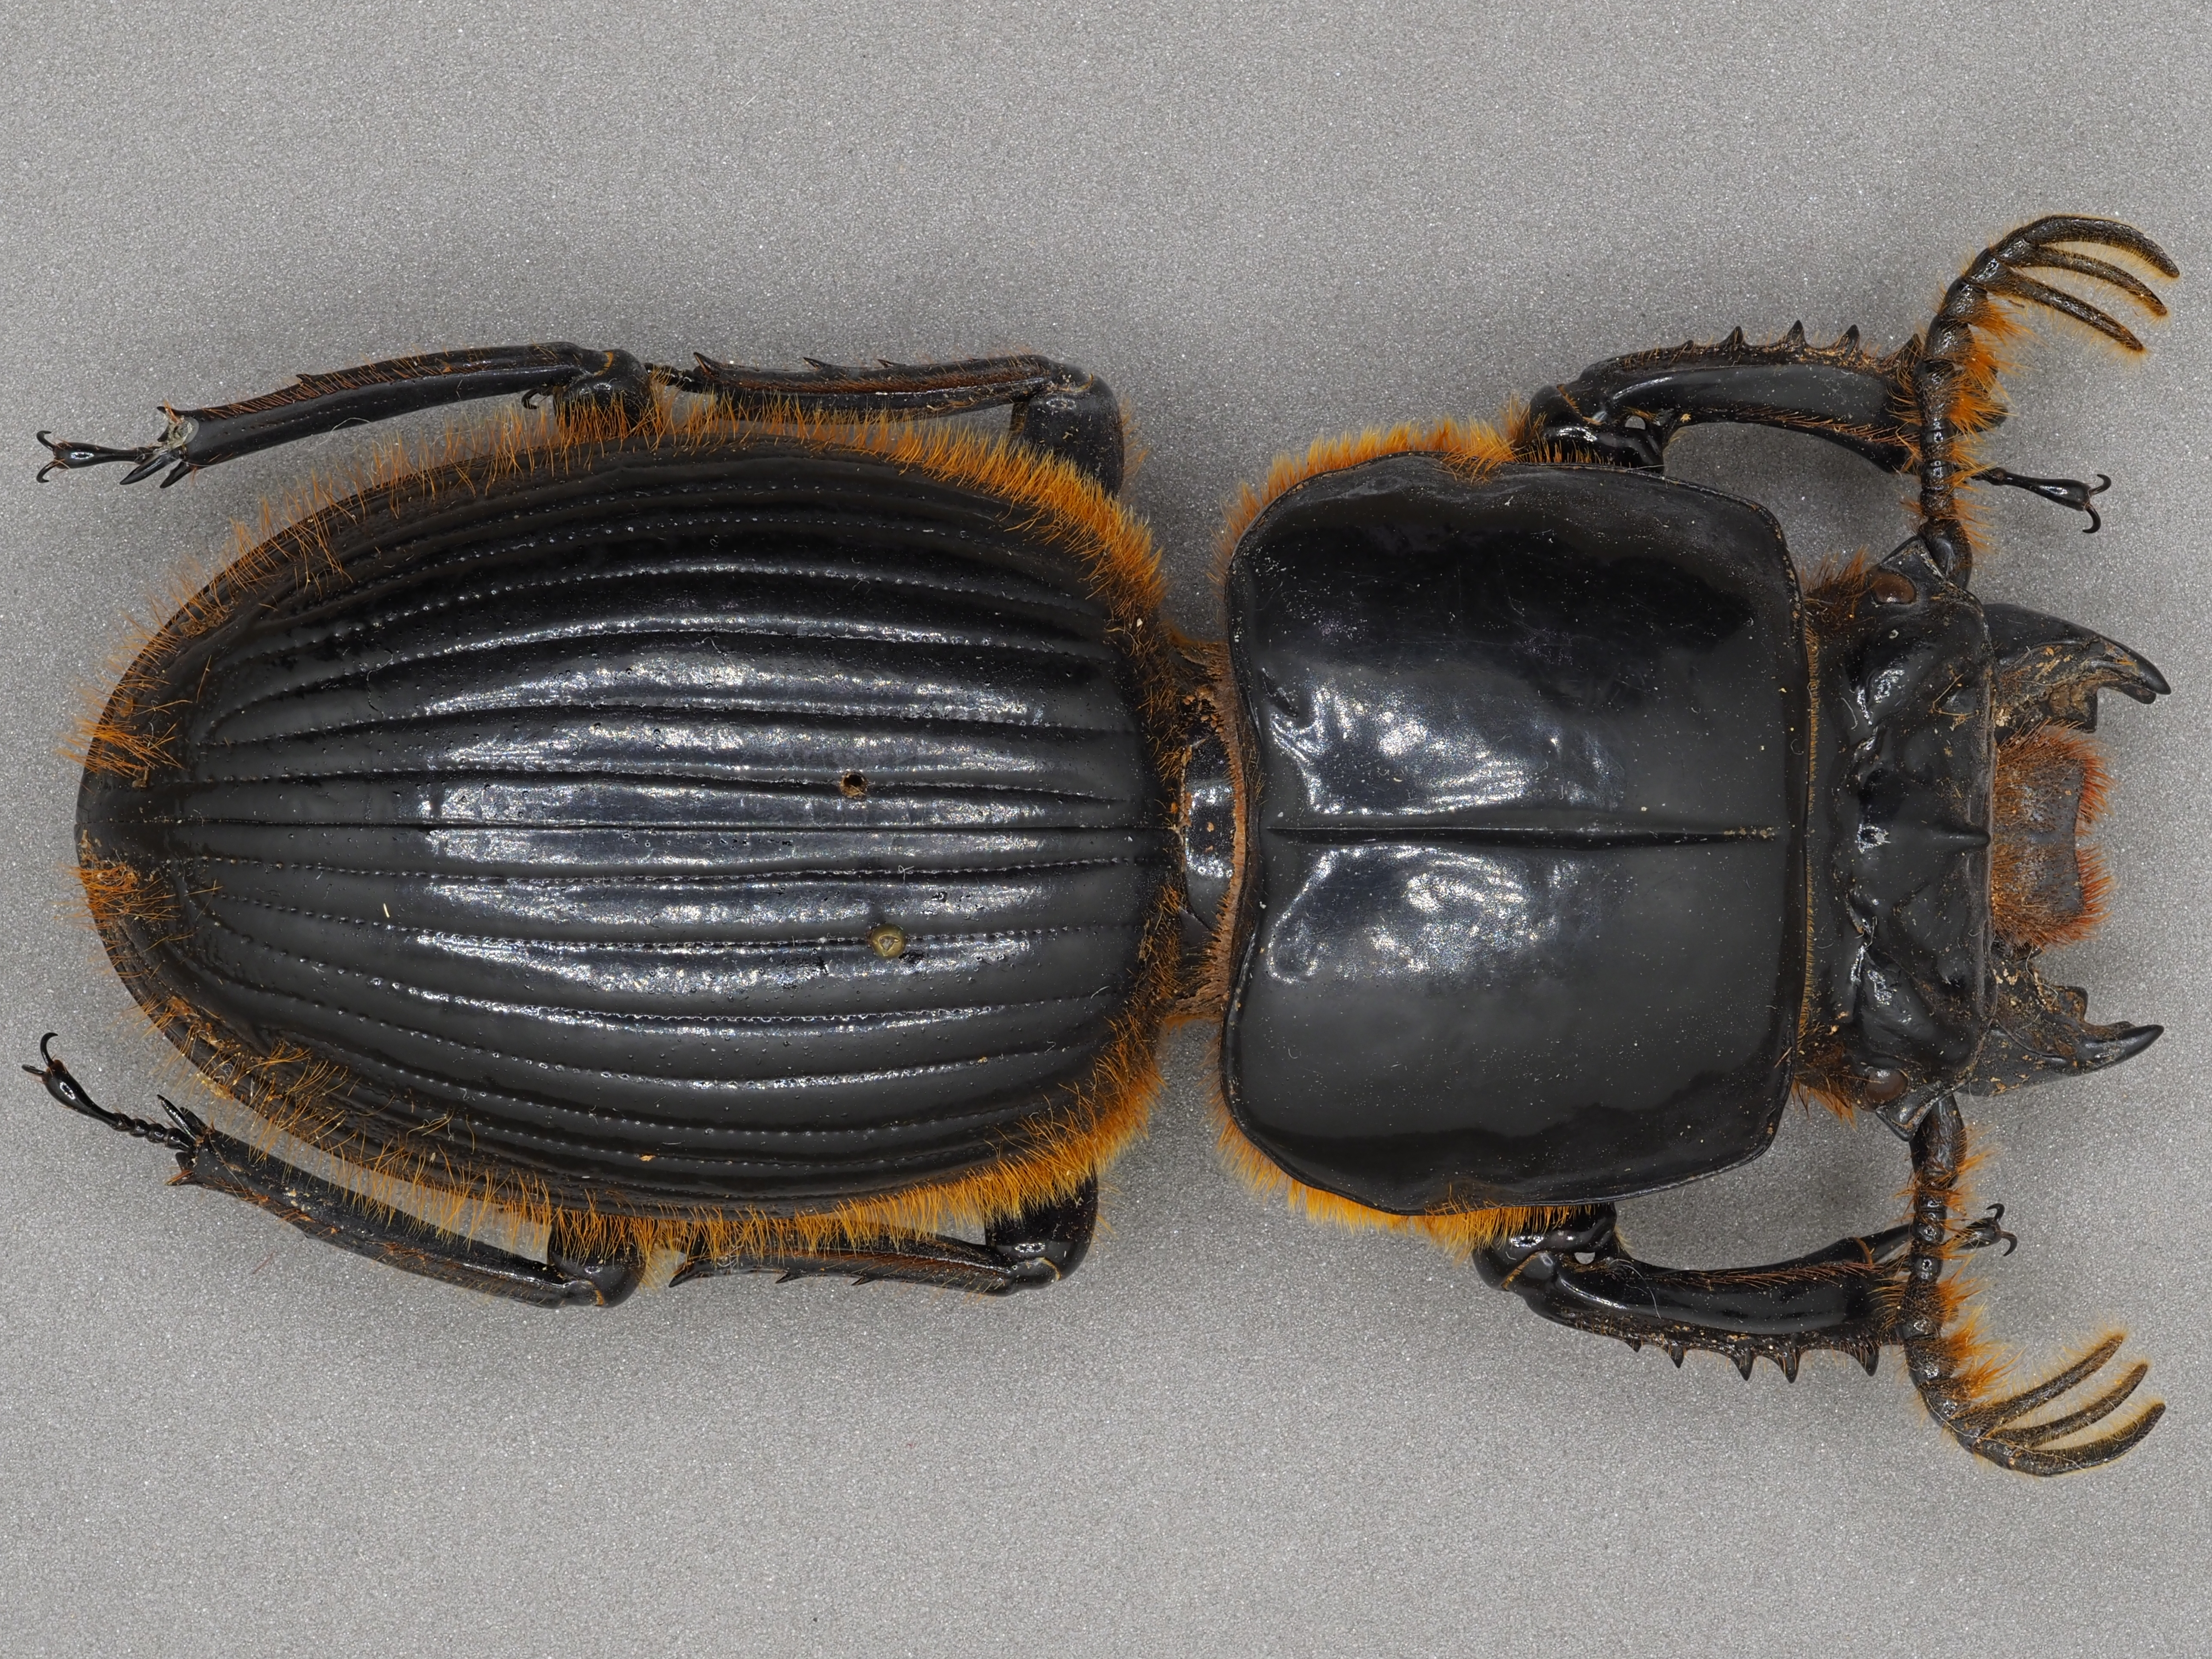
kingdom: Animalia
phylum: Arthropoda
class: Insecta
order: Coleoptera
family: Passalidae
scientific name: Passalidae
